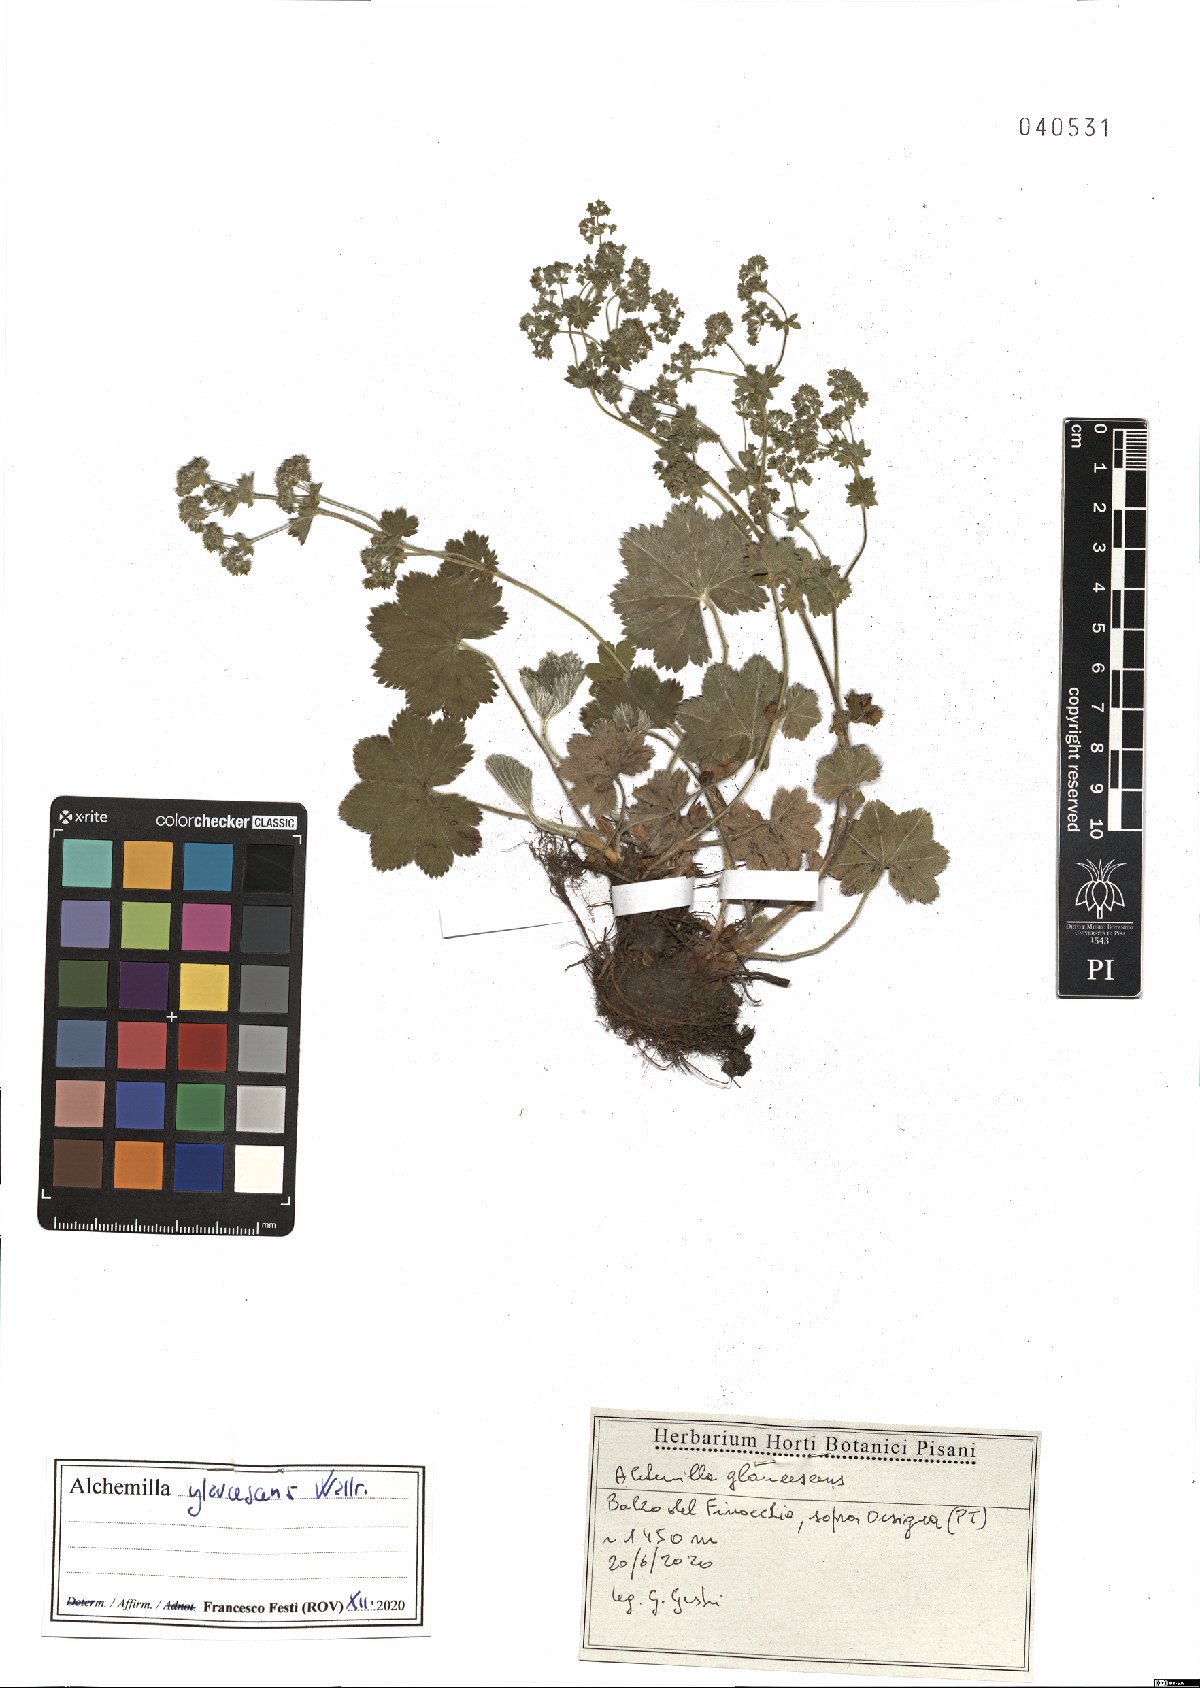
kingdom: Plantae
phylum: Tracheophyta
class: Magnoliopsida
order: Rosales
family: Rosaceae
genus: Alchemilla
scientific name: Alchemilla glaucescens
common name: Silky lady's mantle
